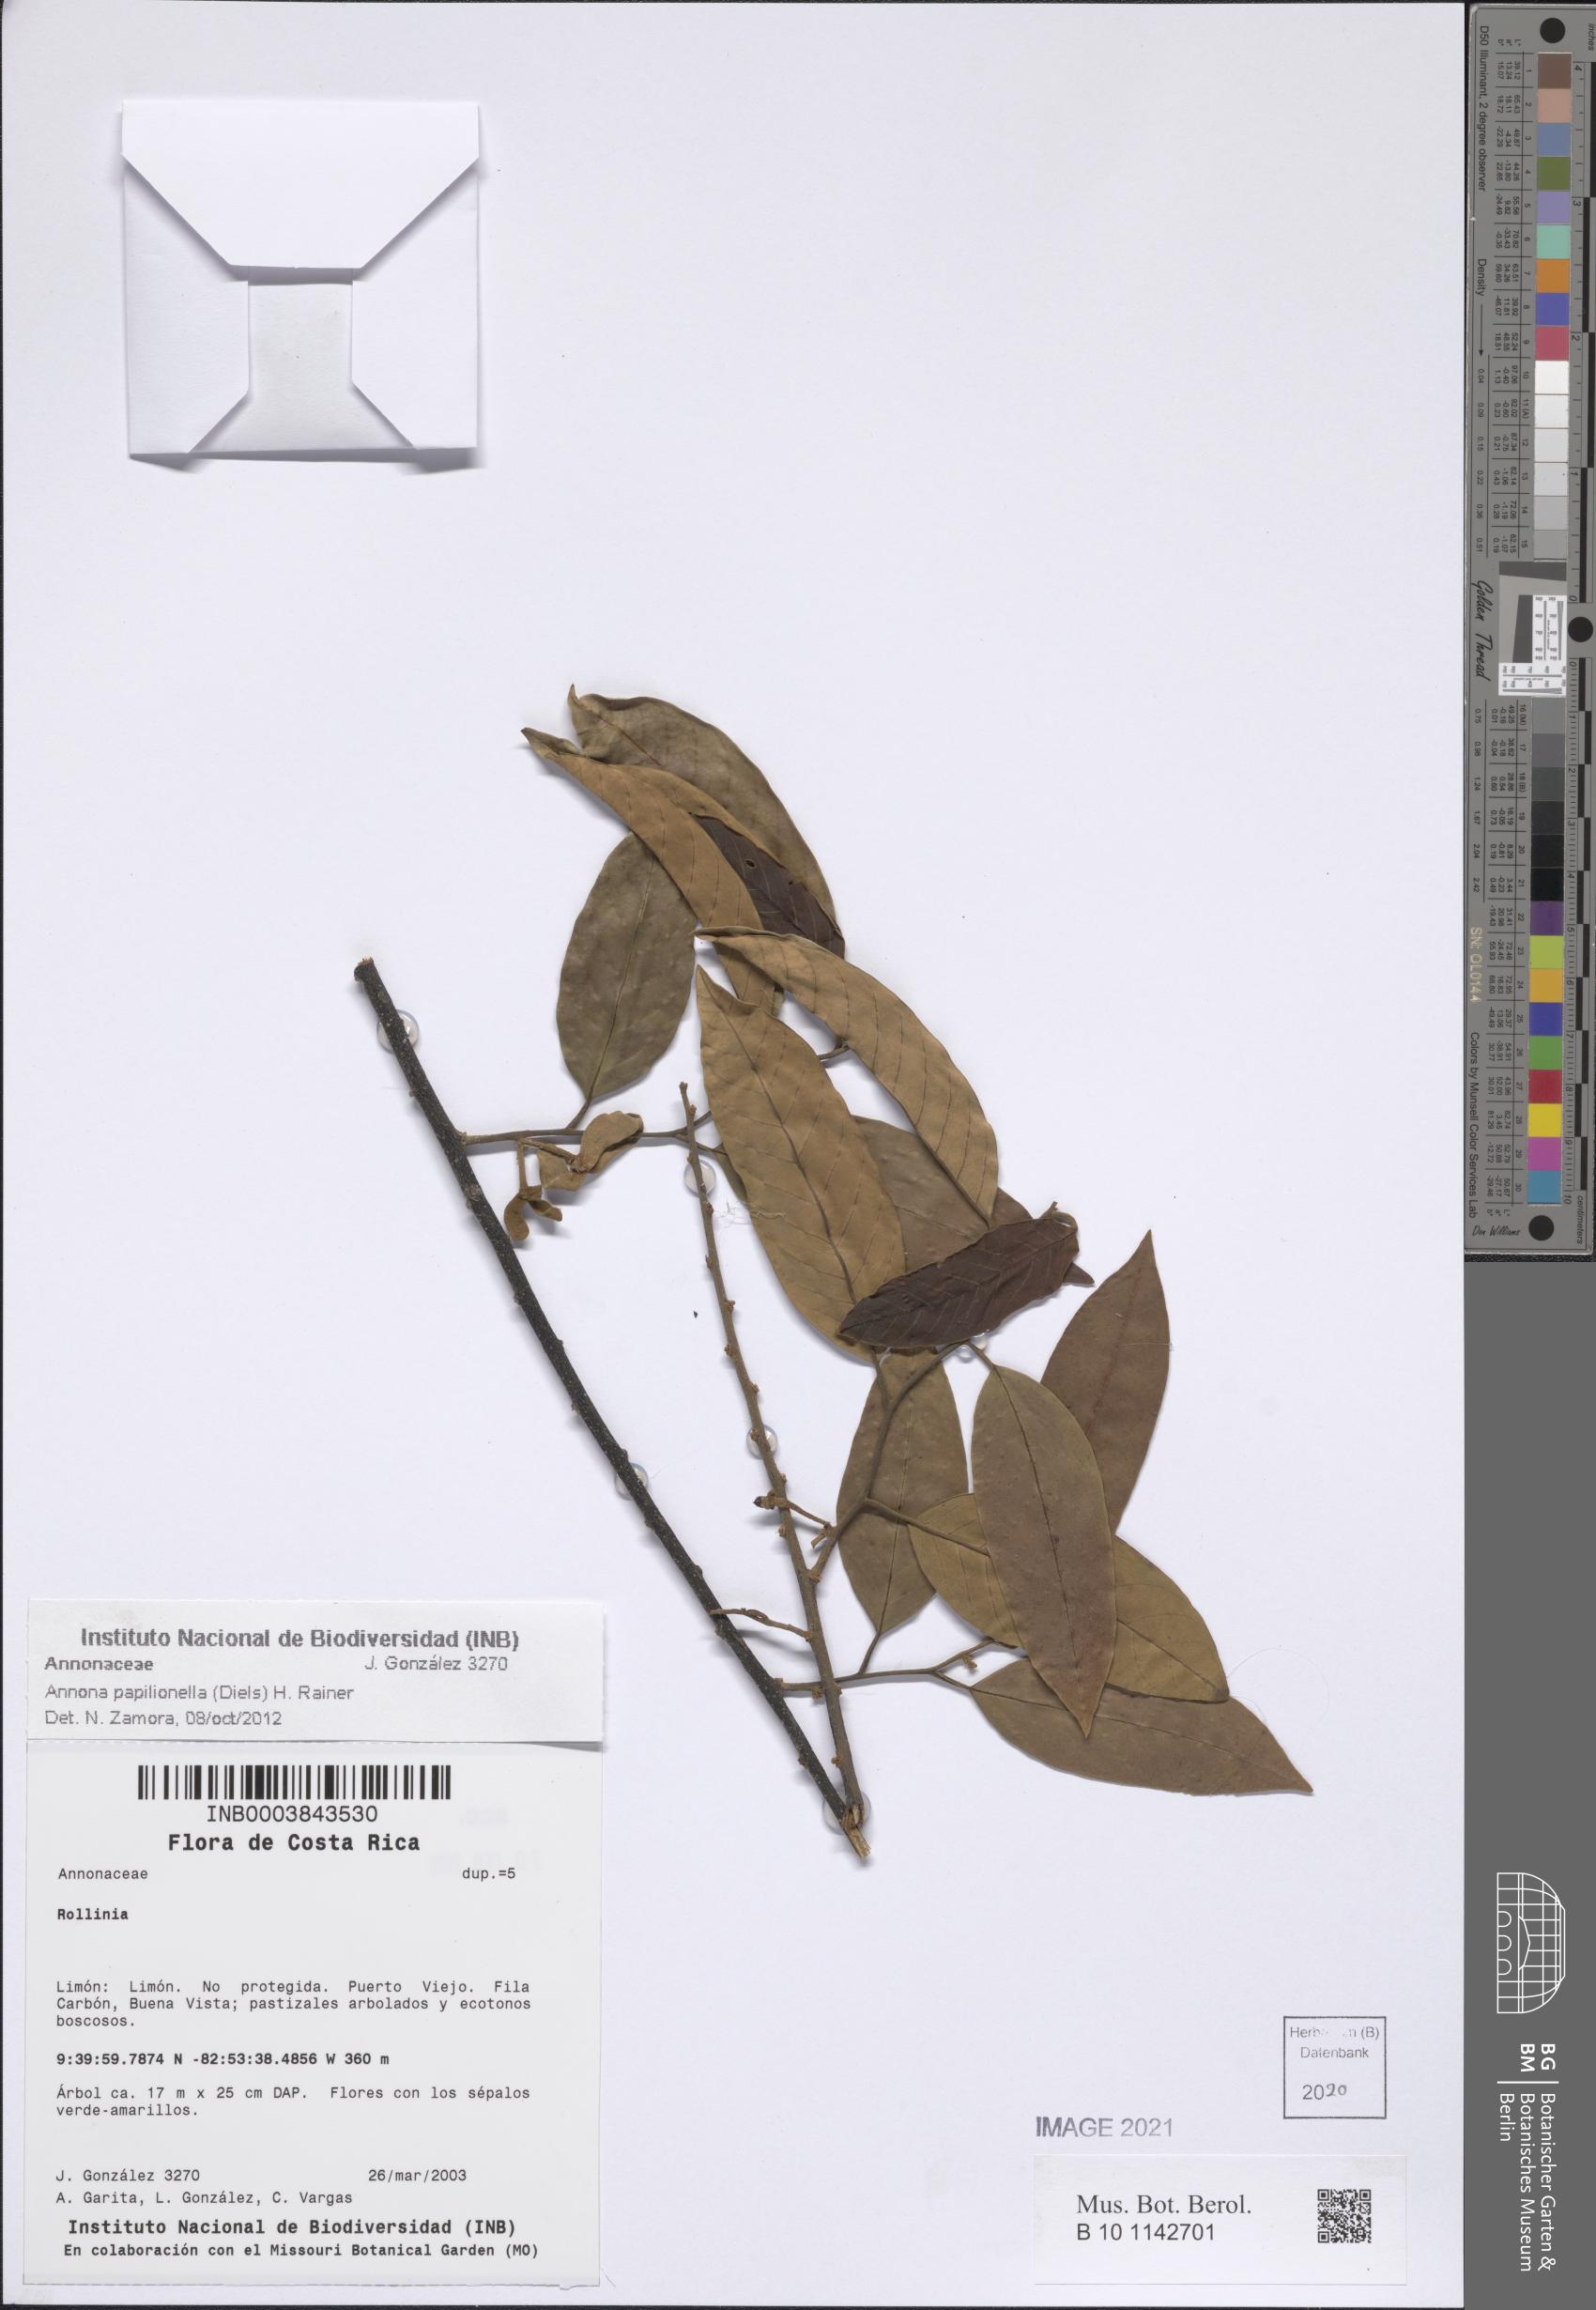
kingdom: Plantae
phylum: Tracheophyta
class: Magnoliopsida
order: Magnoliales
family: Annonaceae
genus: Annona
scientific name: Annona papilionella
